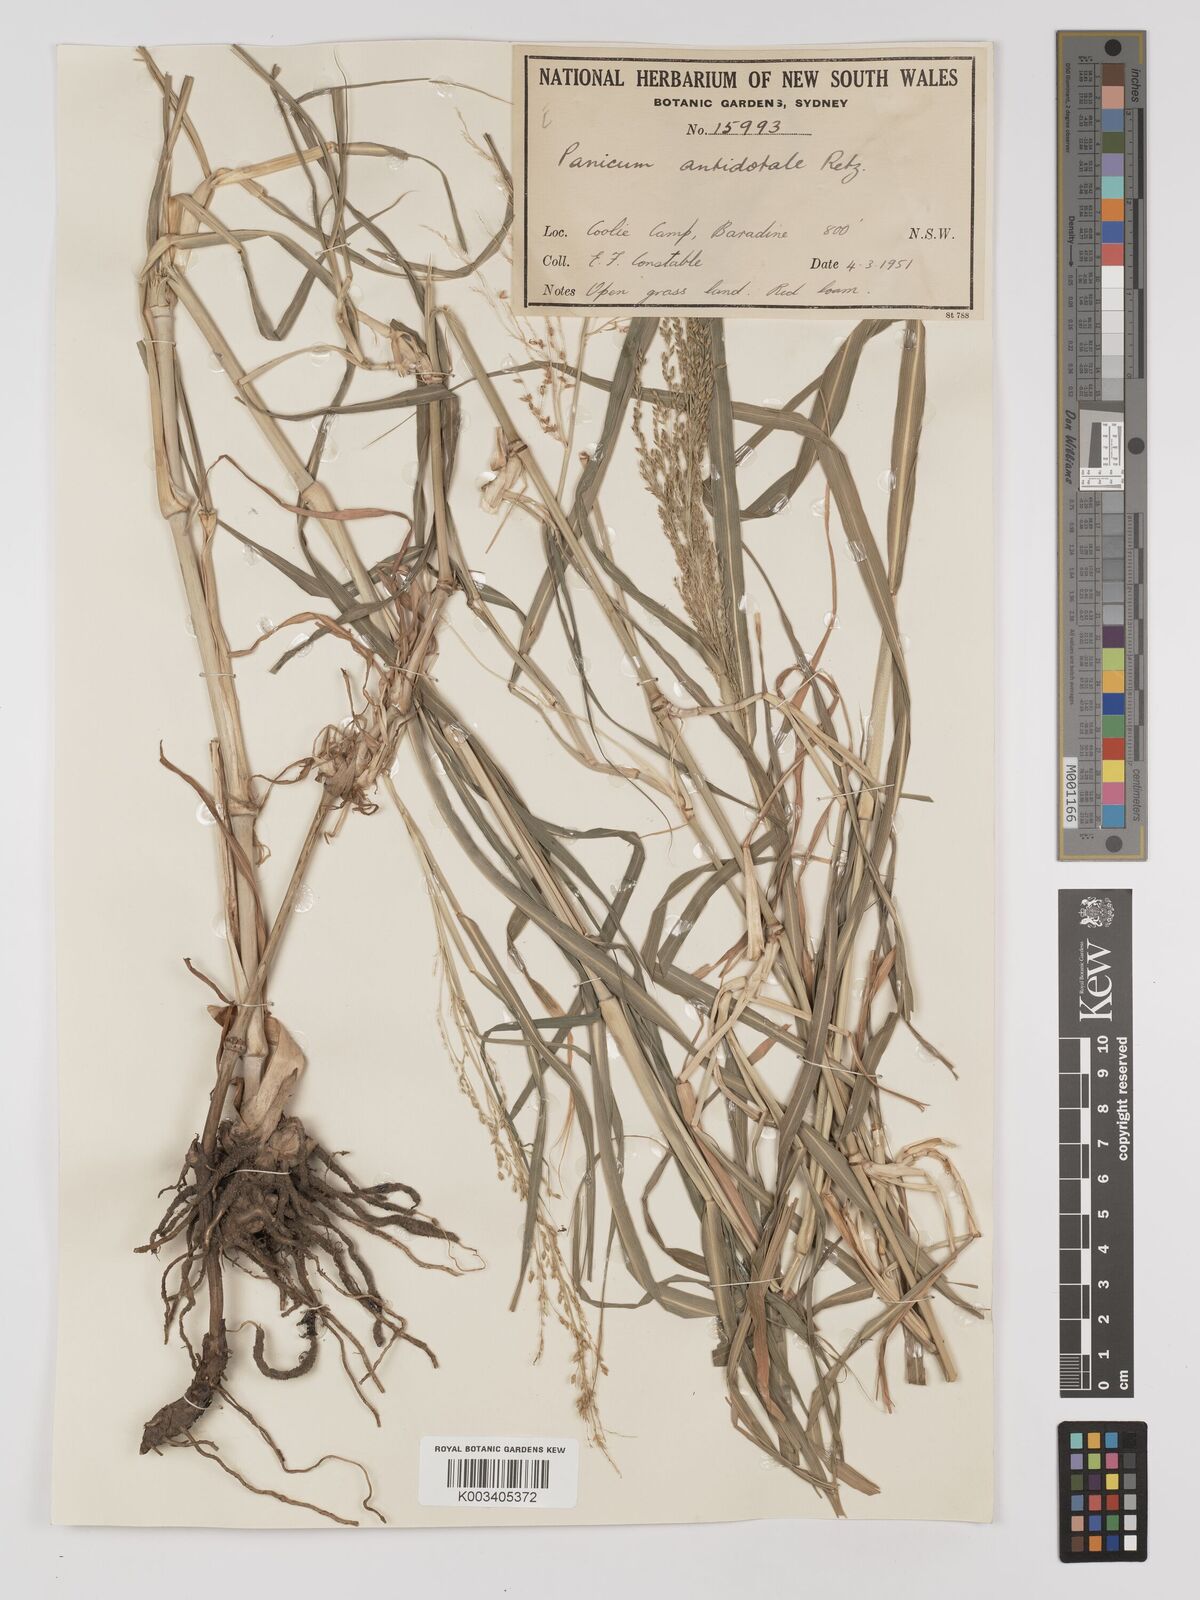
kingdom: Plantae
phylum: Tracheophyta
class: Liliopsida
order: Poales
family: Poaceae
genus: Panicum
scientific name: Panicum antidotale
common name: Blue panicum
